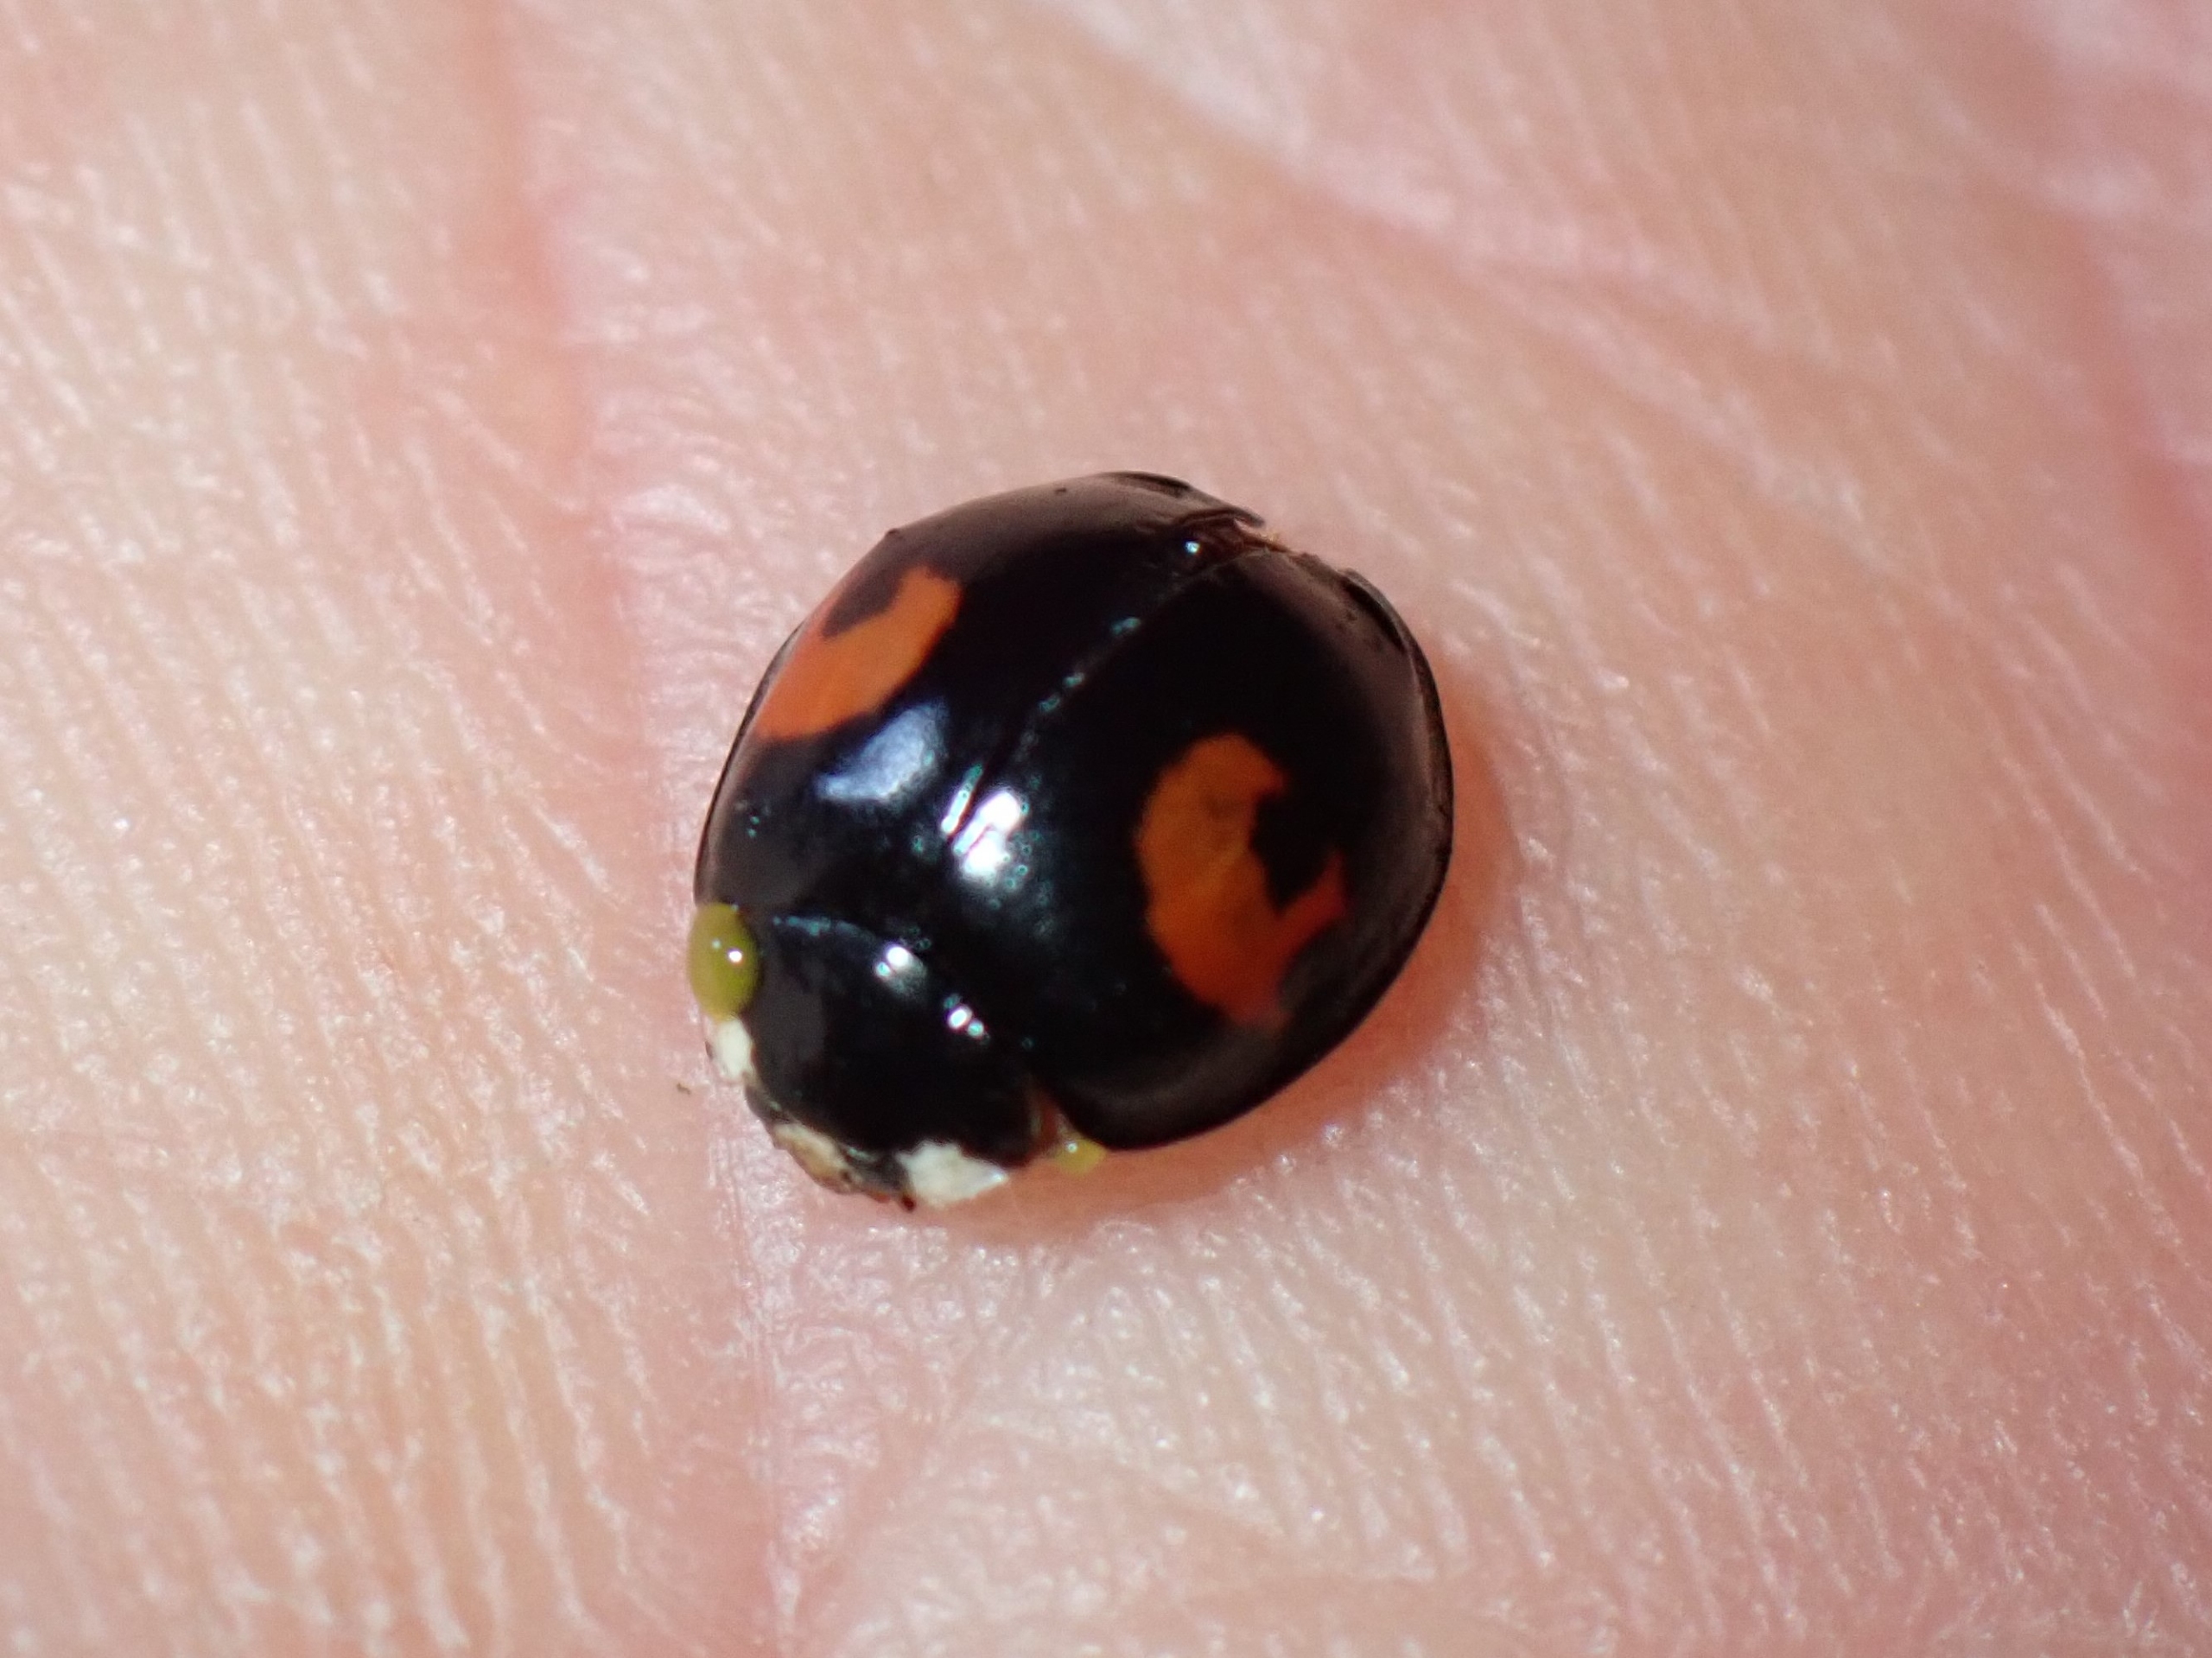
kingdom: Animalia
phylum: Arthropoda
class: Insecta
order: Coleoptera
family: Coccinellidae
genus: Harmonia
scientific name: Harmonia axyridis
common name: Harlekinmariehøne
